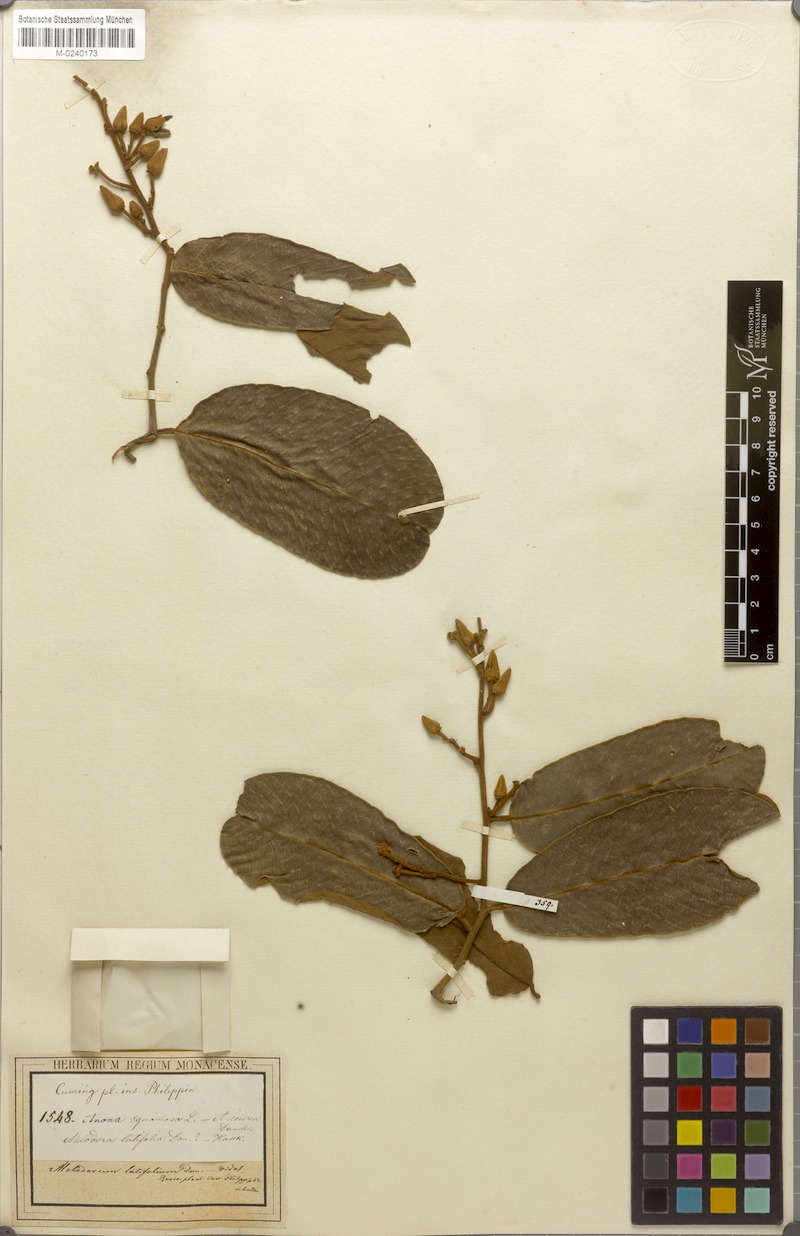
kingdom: Plantae
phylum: Tracheophyta
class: Magnoliopsida
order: Magnoliales
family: Annonaceae
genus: Fissistigma
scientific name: Fissistigma latifolium
